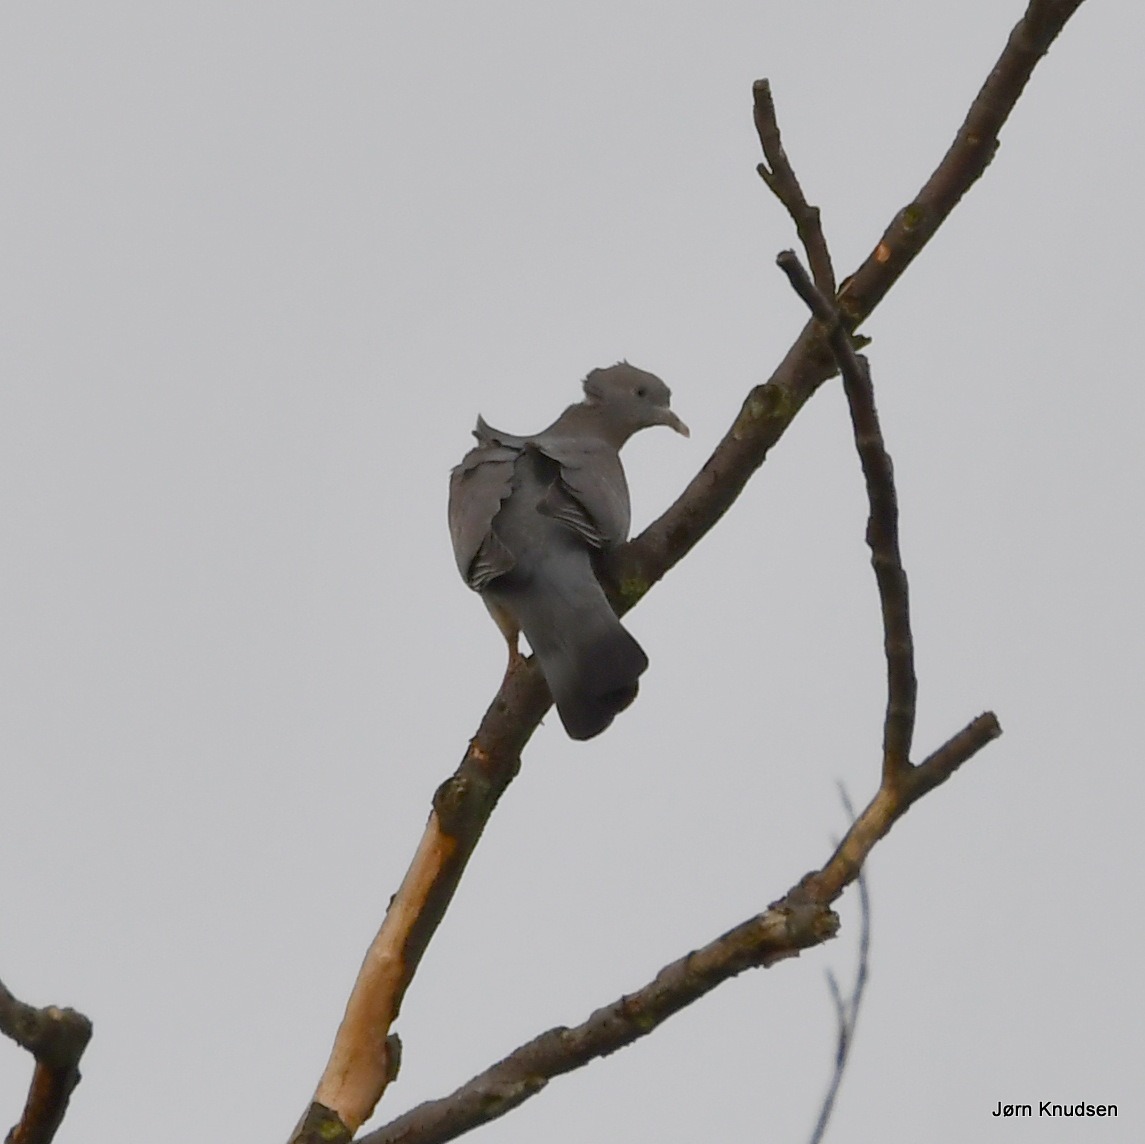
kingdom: Animalia
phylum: Chordata
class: Aves
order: Columbiformes
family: Columbidae
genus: Columba
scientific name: Columba palumbus
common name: Ringdue
